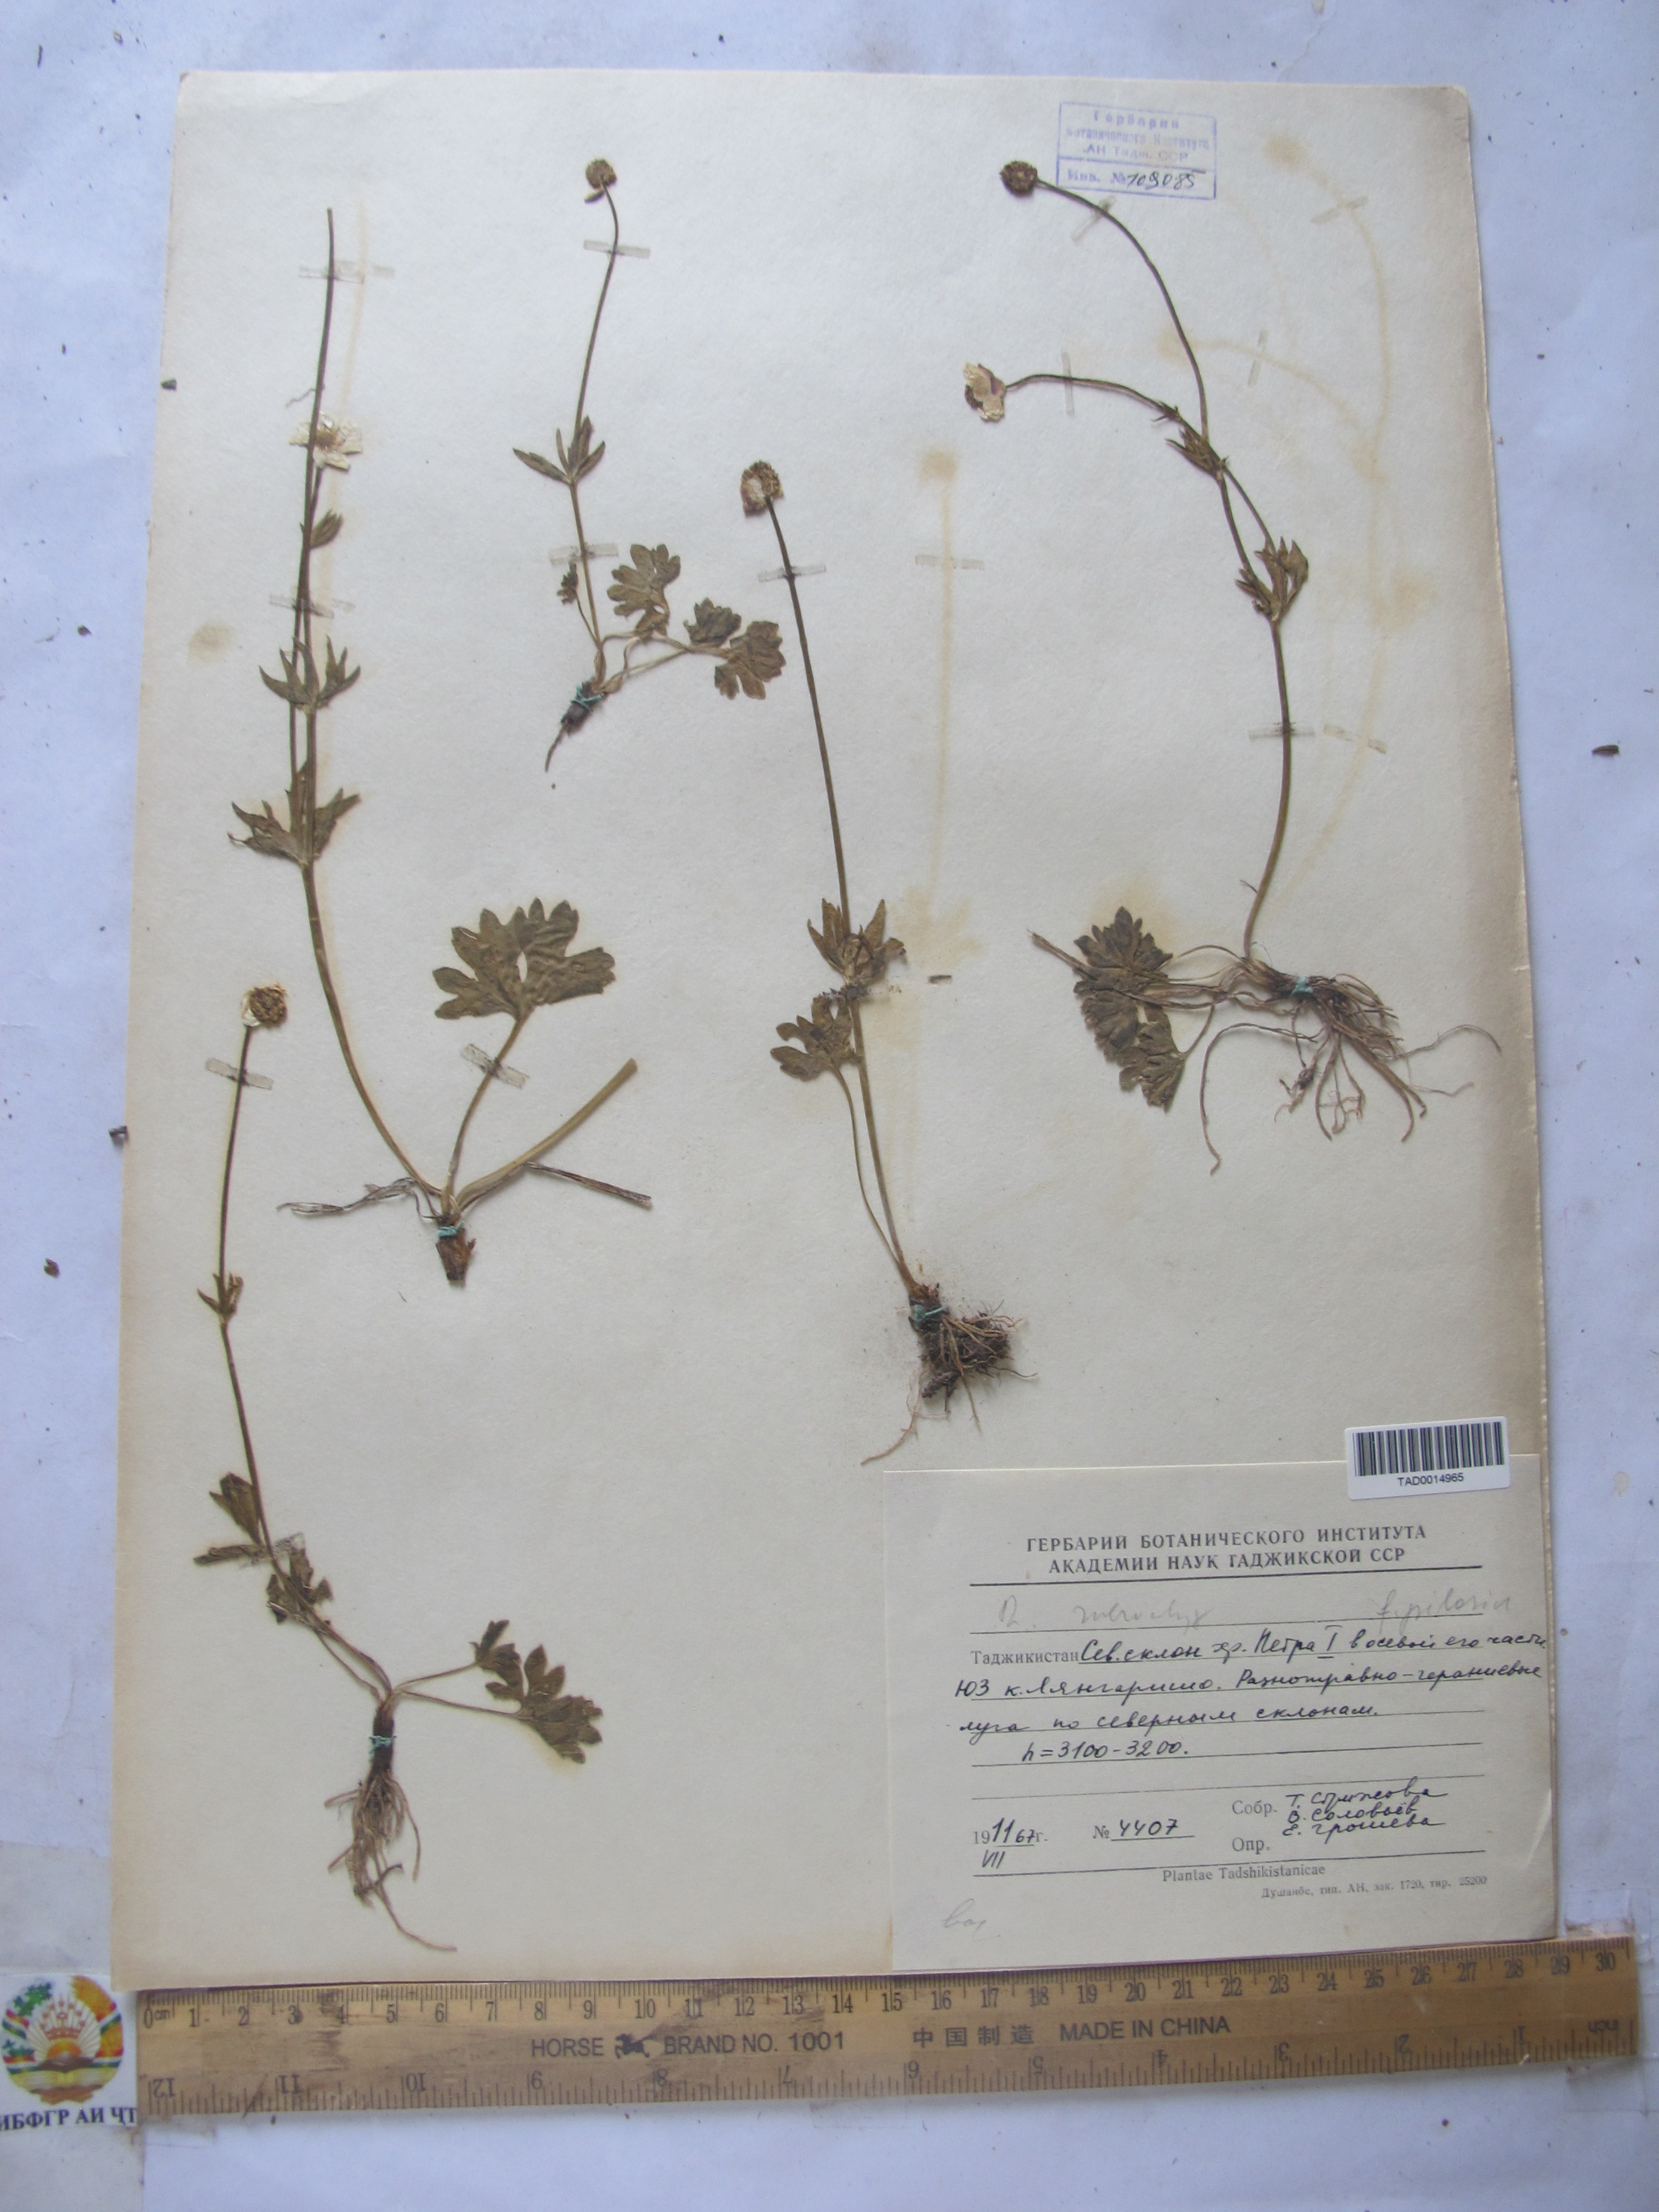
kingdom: Plantae
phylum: Tracheophyta
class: Magnoliopsida
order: Ranunculales
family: Ranunculaceae
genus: Ranunculus
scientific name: Ranunculus rubrocalyx
